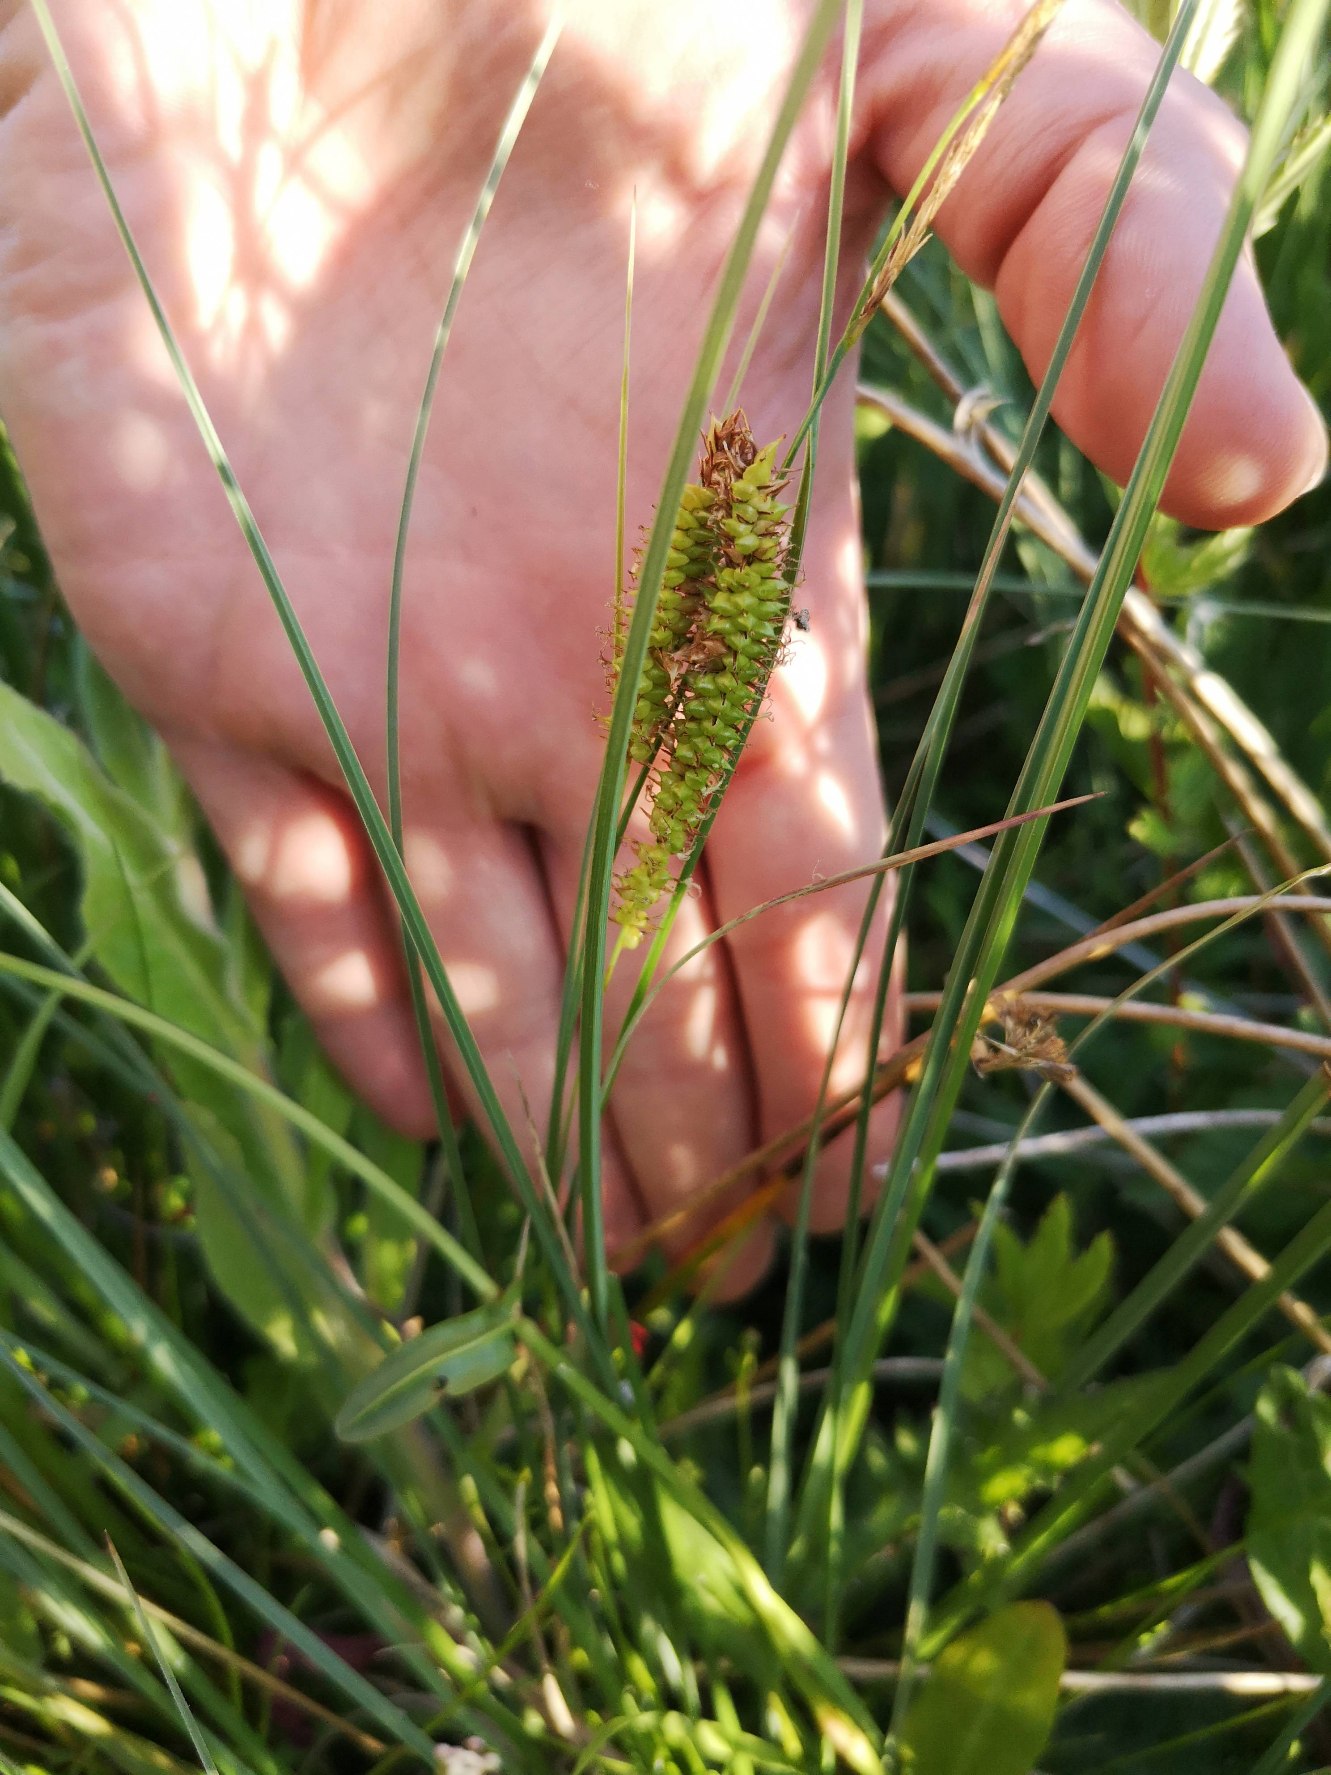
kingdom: Plantae
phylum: Tracheophyta
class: Liliopsida
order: Poales
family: Cyperaceae
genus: Carex
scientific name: Carex rostrata
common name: Næb-star
